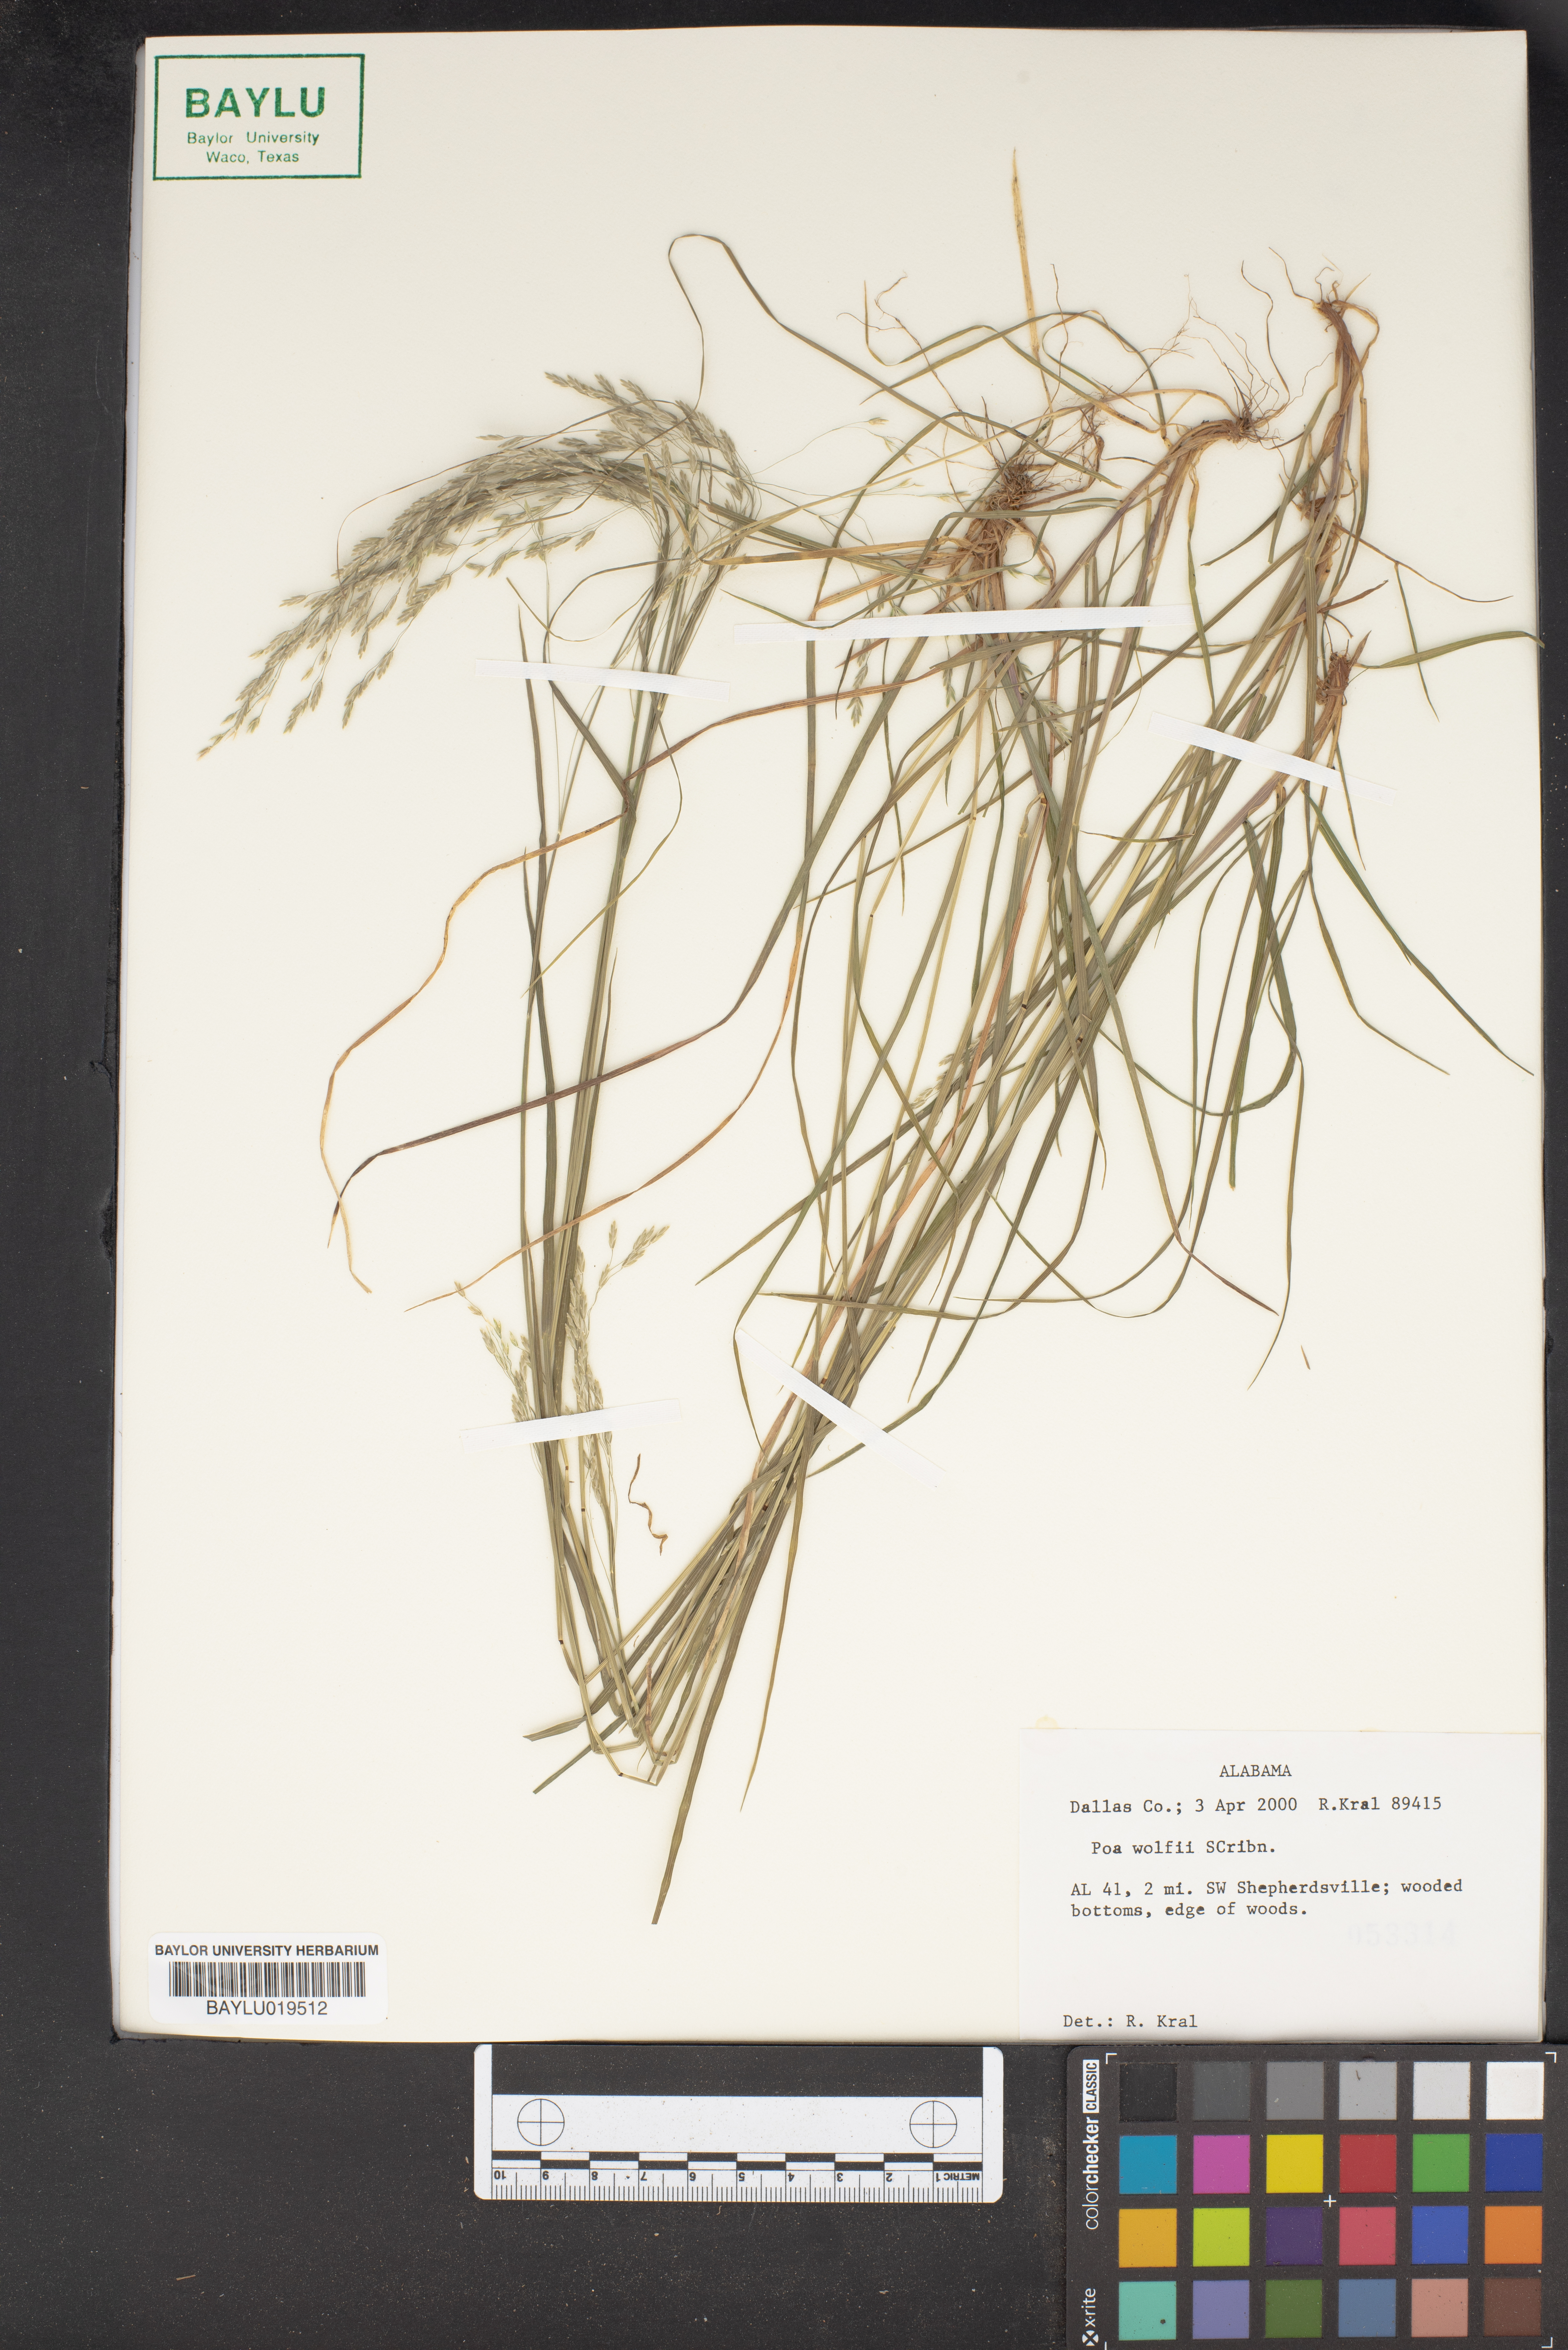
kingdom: Plantae
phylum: Tracheophyta
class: Liliopsida
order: Poales
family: Poaceae
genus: Poa
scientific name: Poa wolfii
